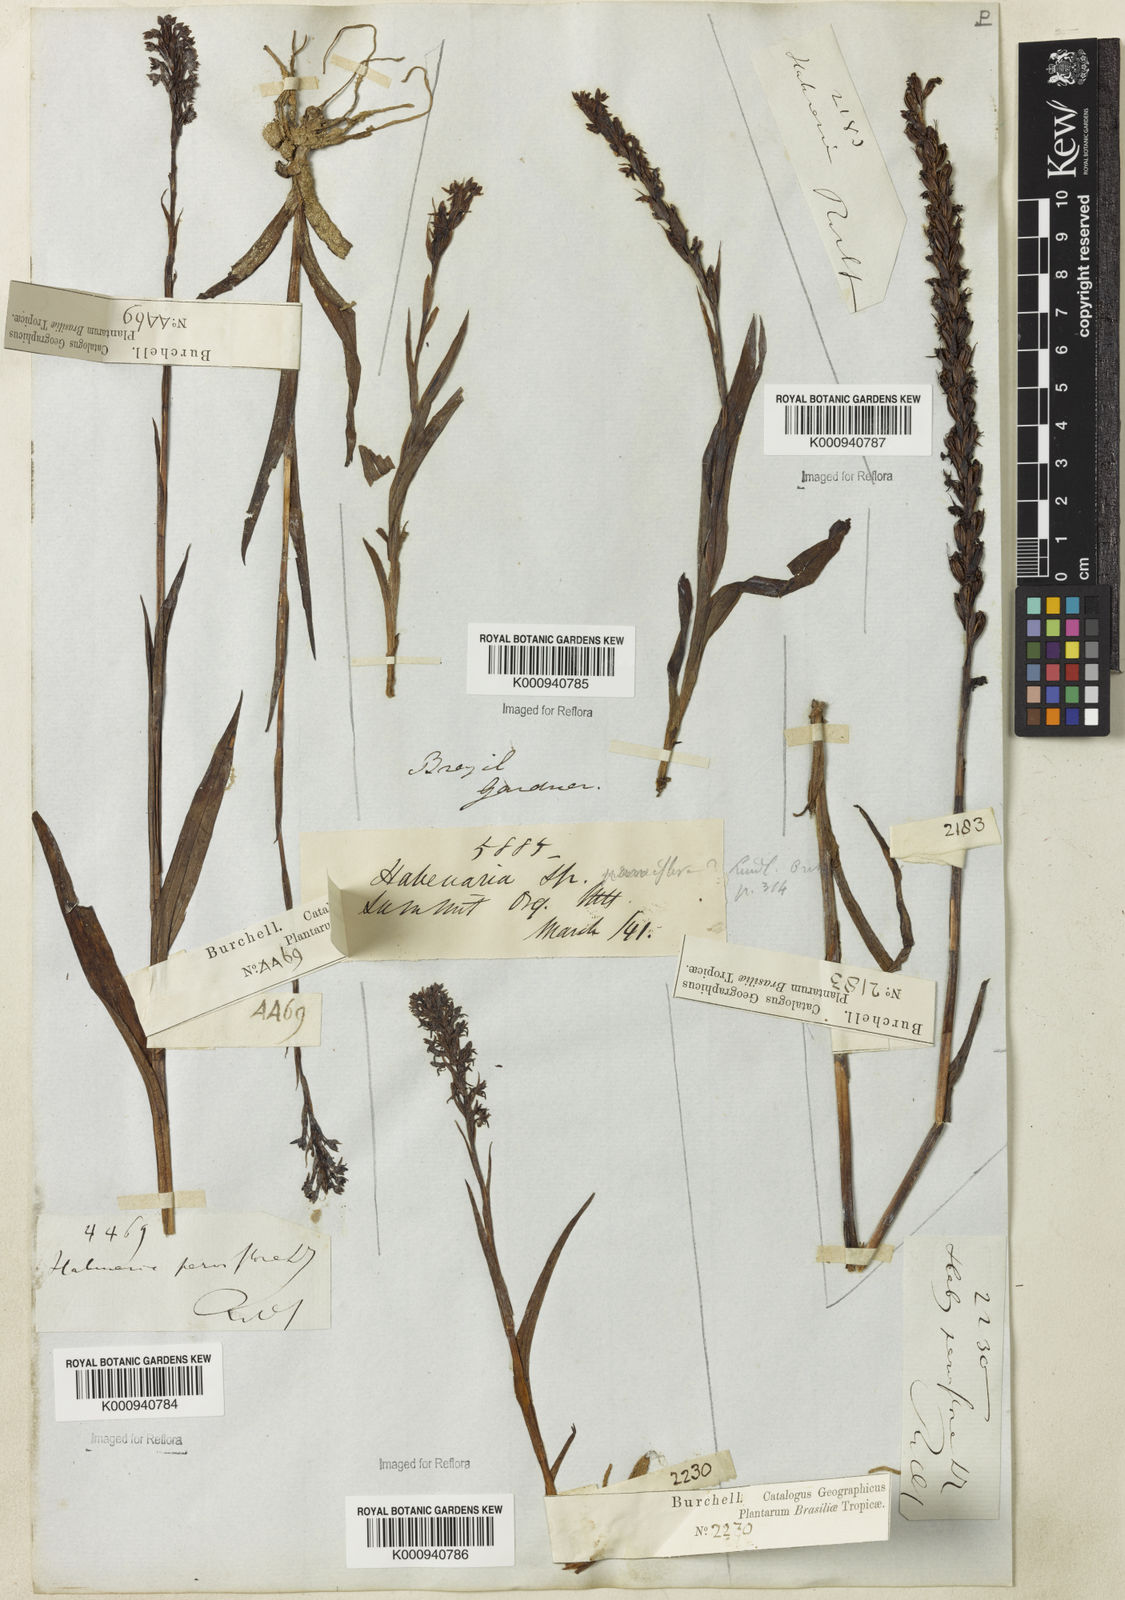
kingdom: Plantae
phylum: Tracheophyta
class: Liliopsida
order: Asparagales
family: Orchidaceae
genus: Habenaria
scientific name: Habenaria parviflora
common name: Small flowered habenaria
